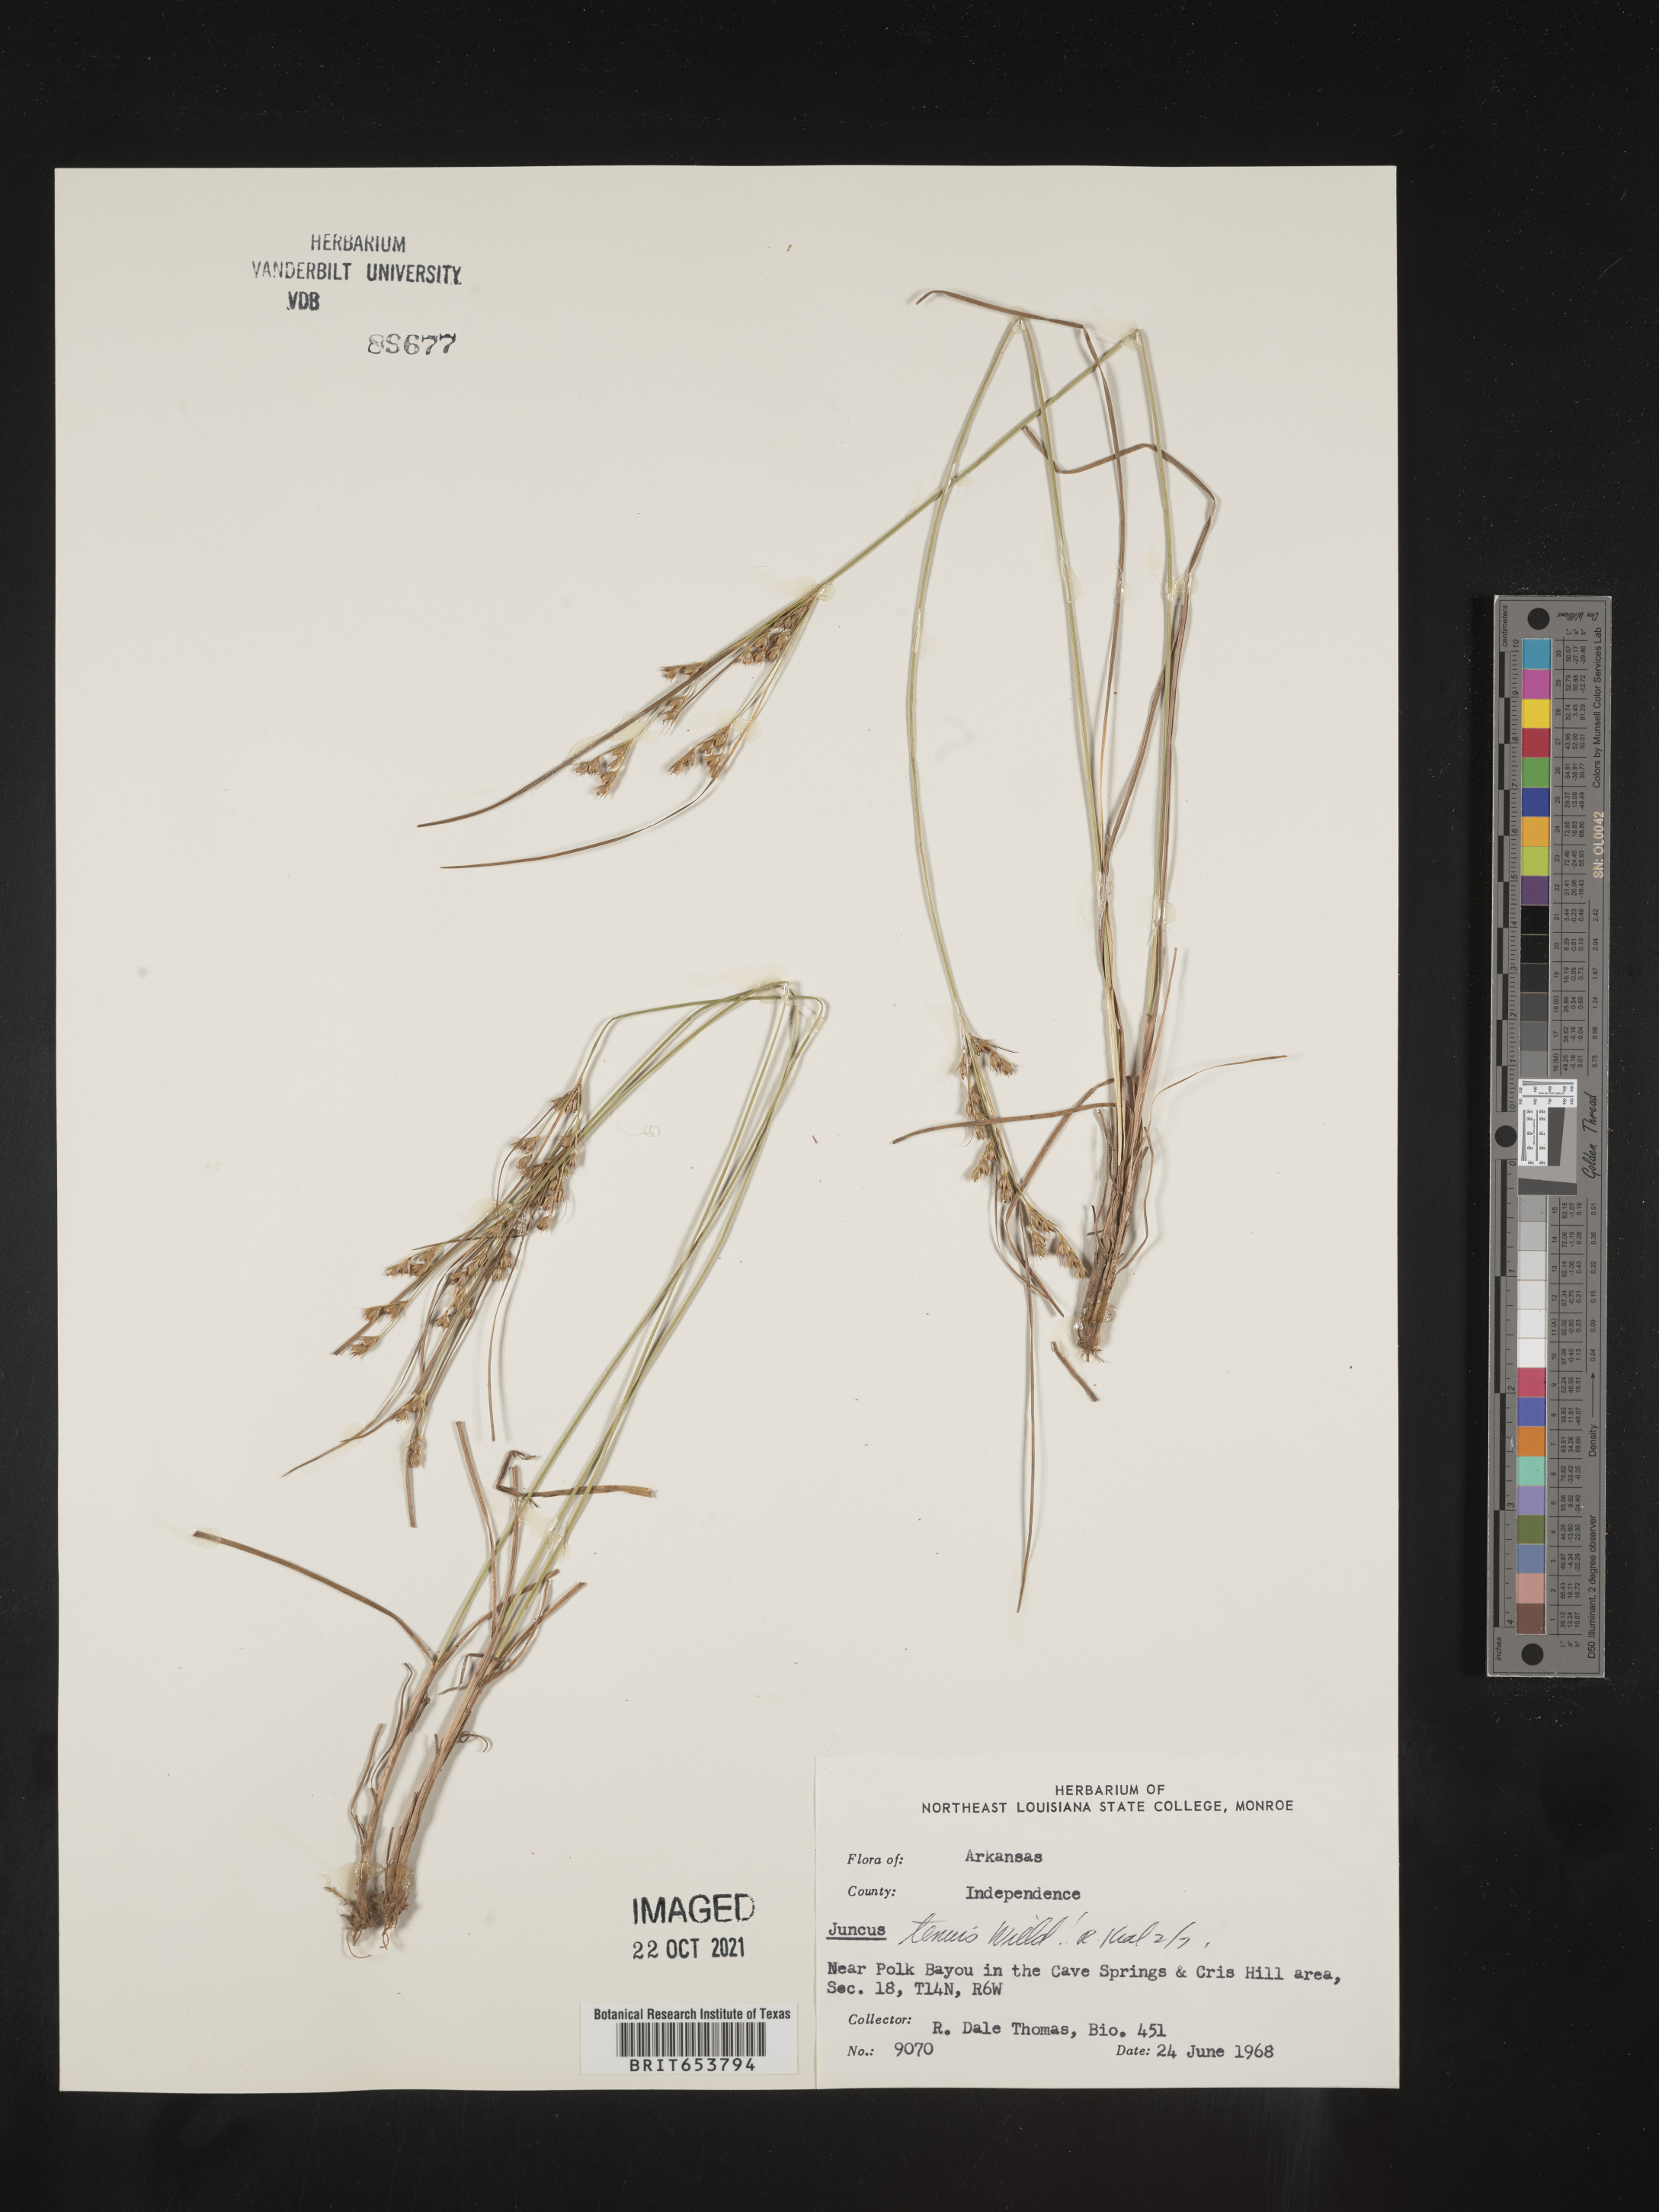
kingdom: Plantae
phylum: Tracheophyta
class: Liliopsida
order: Poales
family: Juncaceae
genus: Juncus
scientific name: Juncus tenuis
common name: Slender rush
